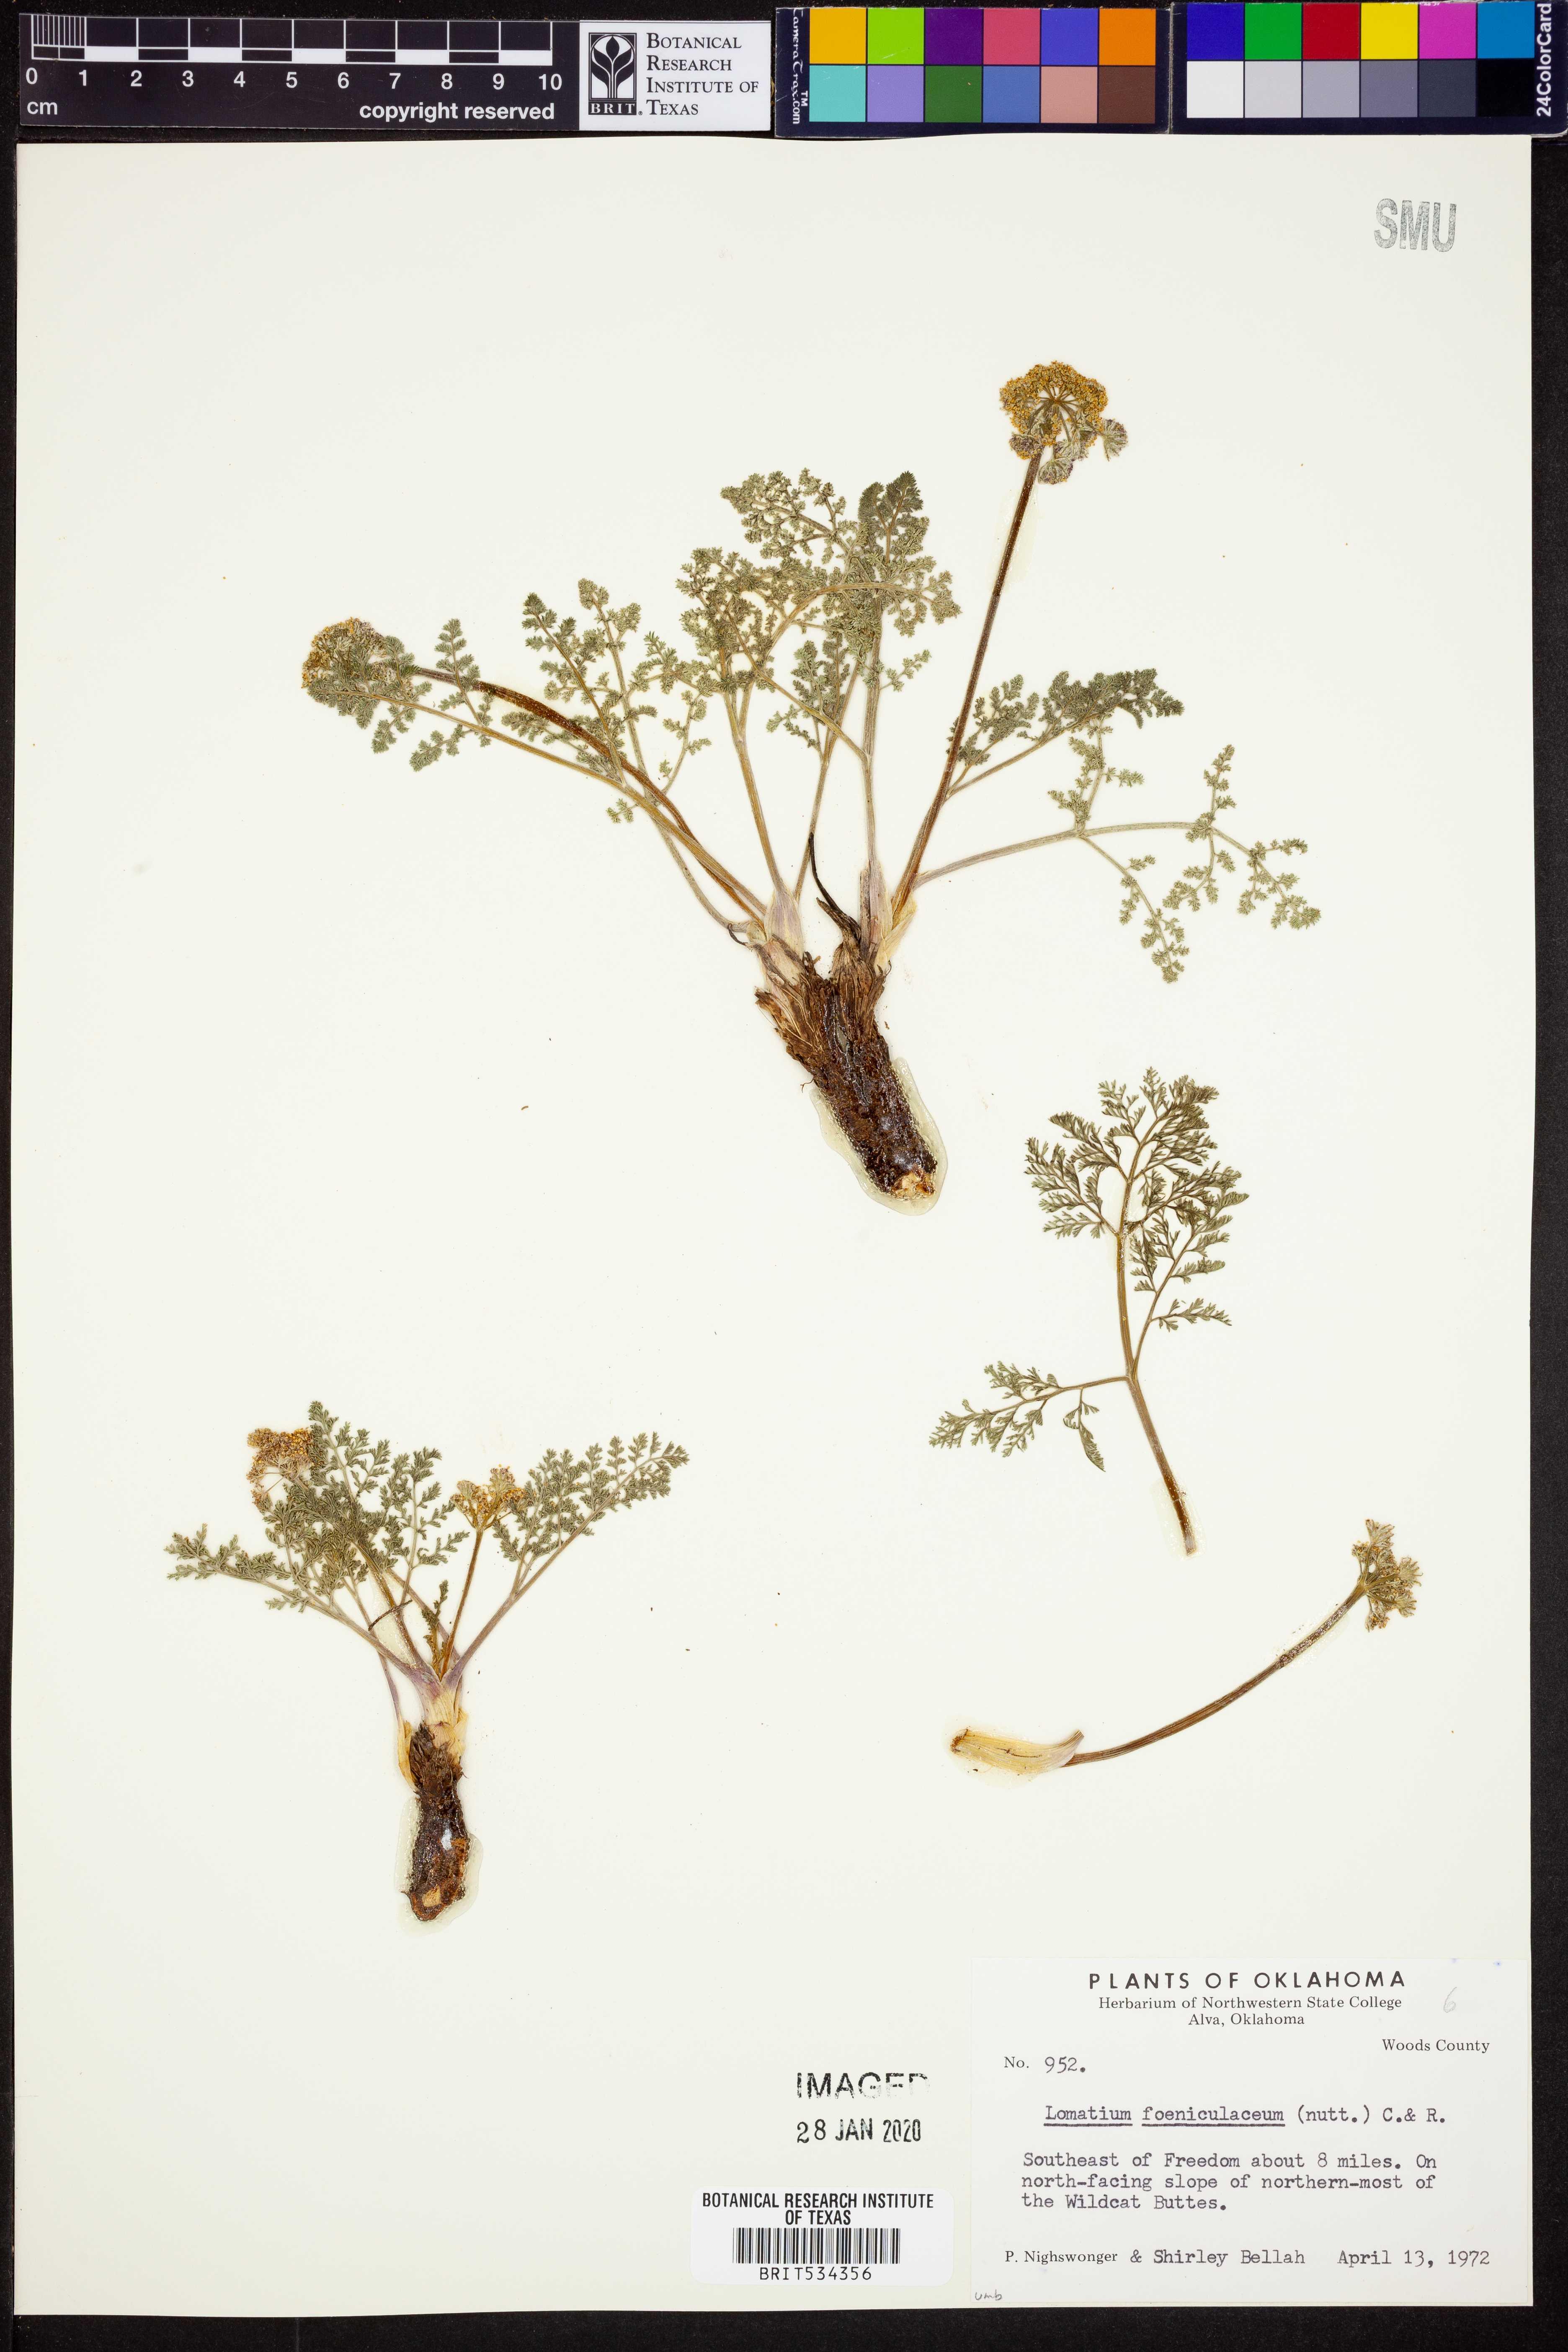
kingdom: Plantae
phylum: Tracheophyta
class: Magnoliopsida
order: Apiales
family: Apiaceae
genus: Lomatium
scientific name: Lomatium foeniculaceum
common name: Desert-parsley
